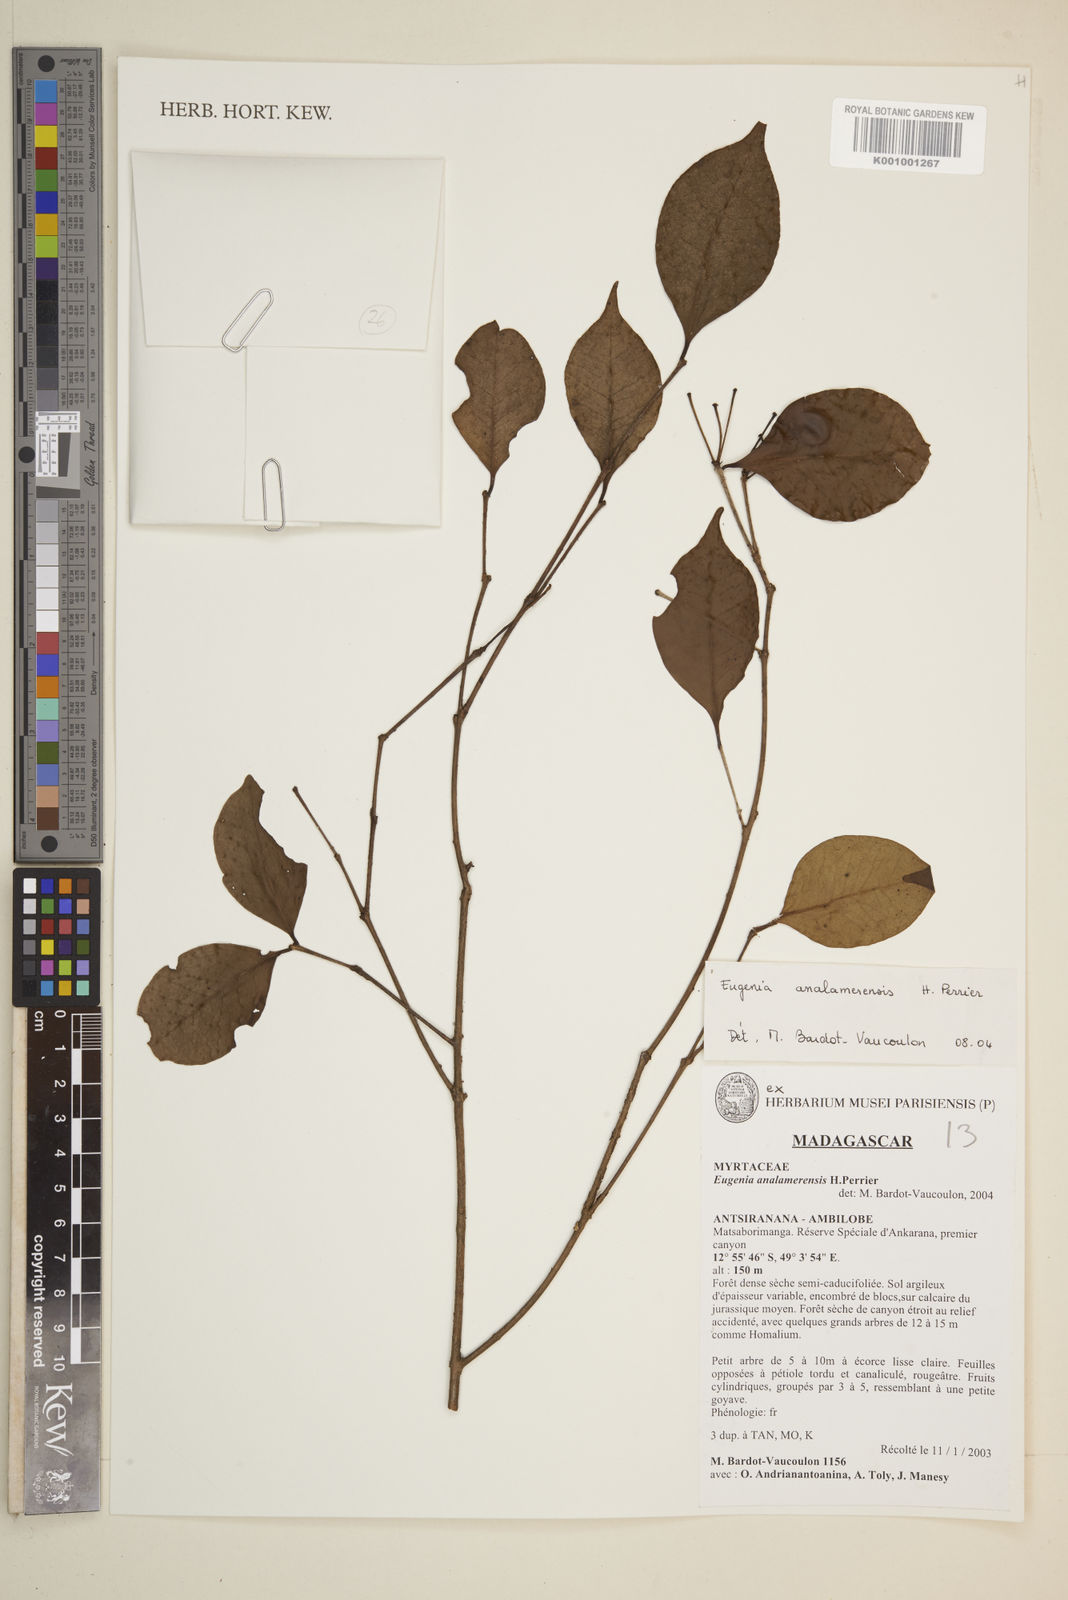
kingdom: Plantae
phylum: Tracheophyta
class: Magnoliopsida
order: Myrtales
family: Myrtaceae
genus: Eugenia
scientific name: Eugenia analamerensis
